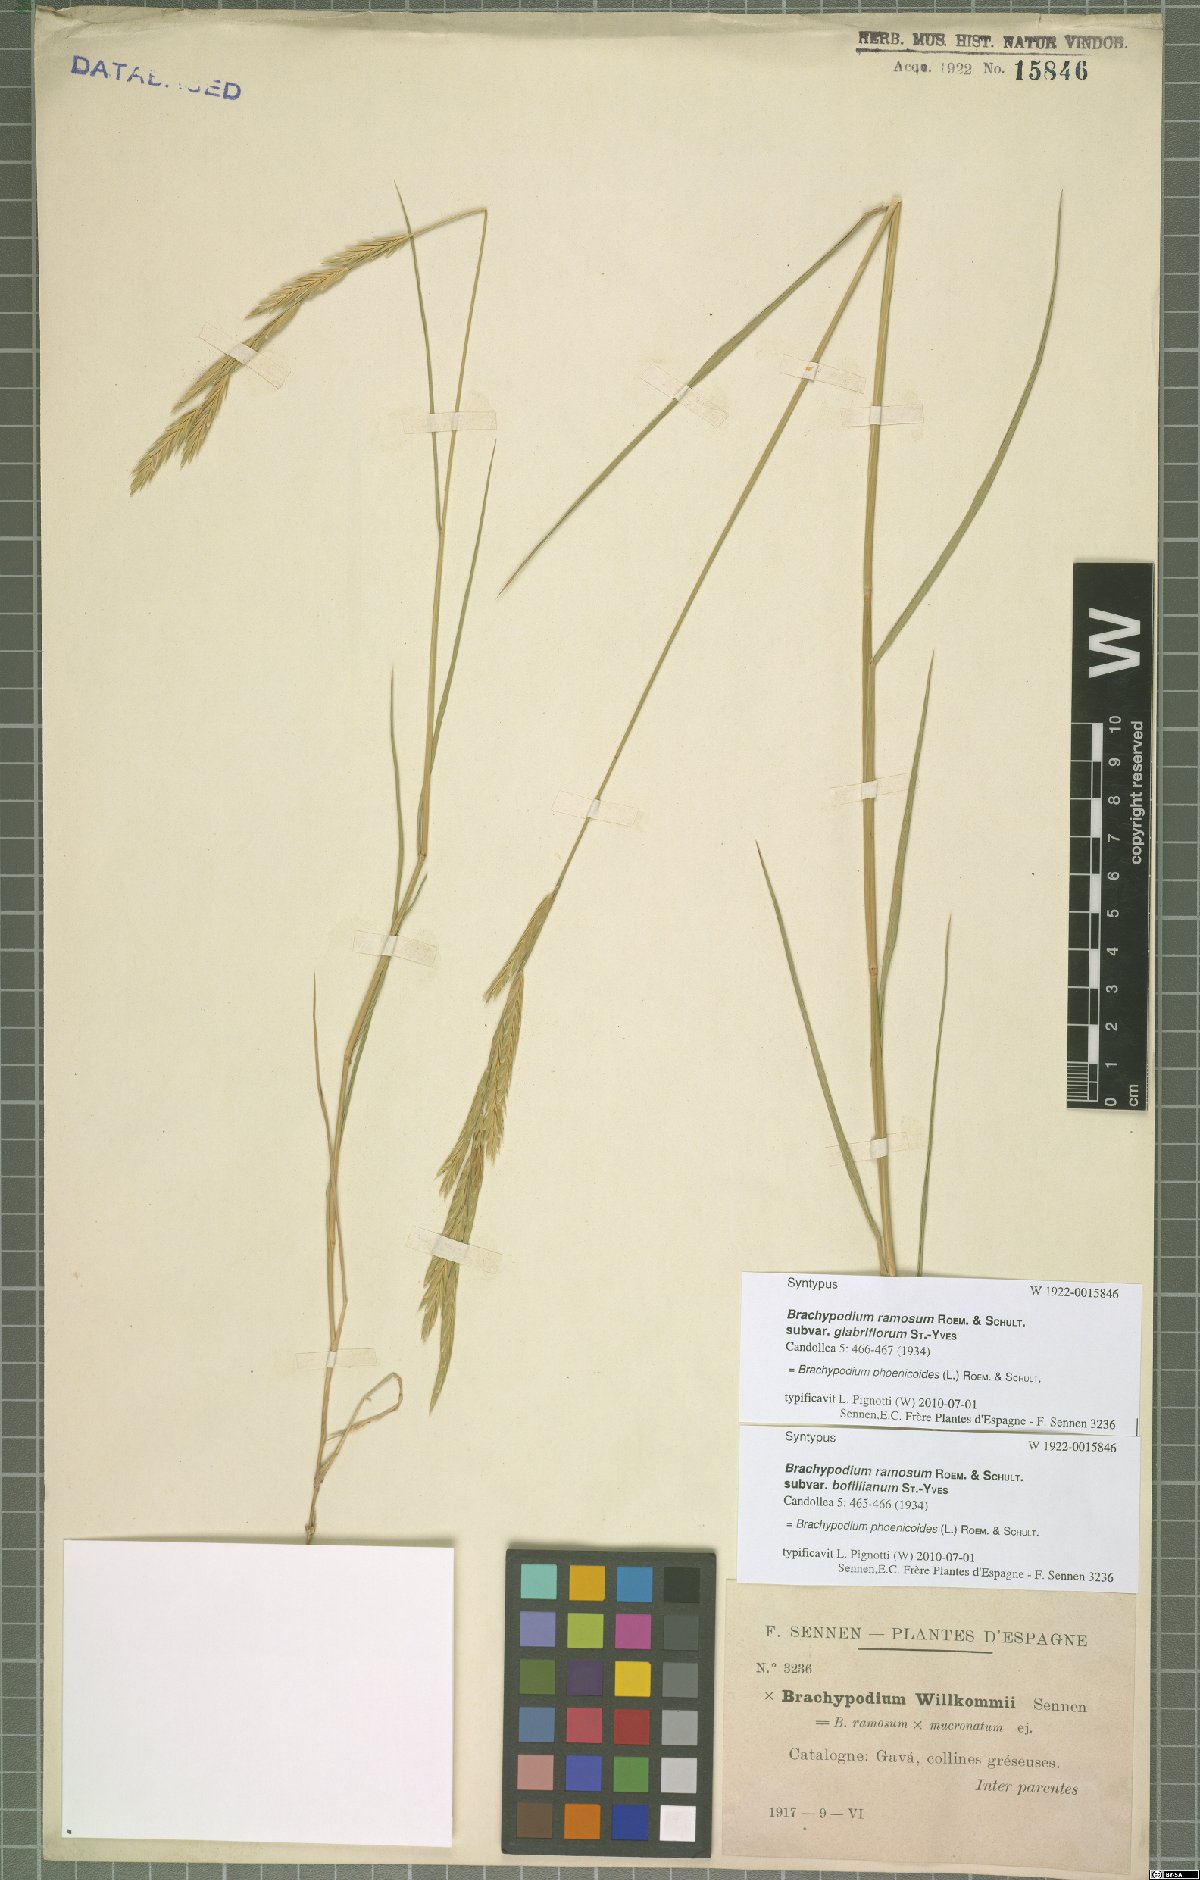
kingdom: Plantae
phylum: Tracheophyta
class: Liliopsida
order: Poales
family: Poaceae
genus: Brachypodium
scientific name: Brachypodium phoenicoides
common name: Thinleaf false brome
